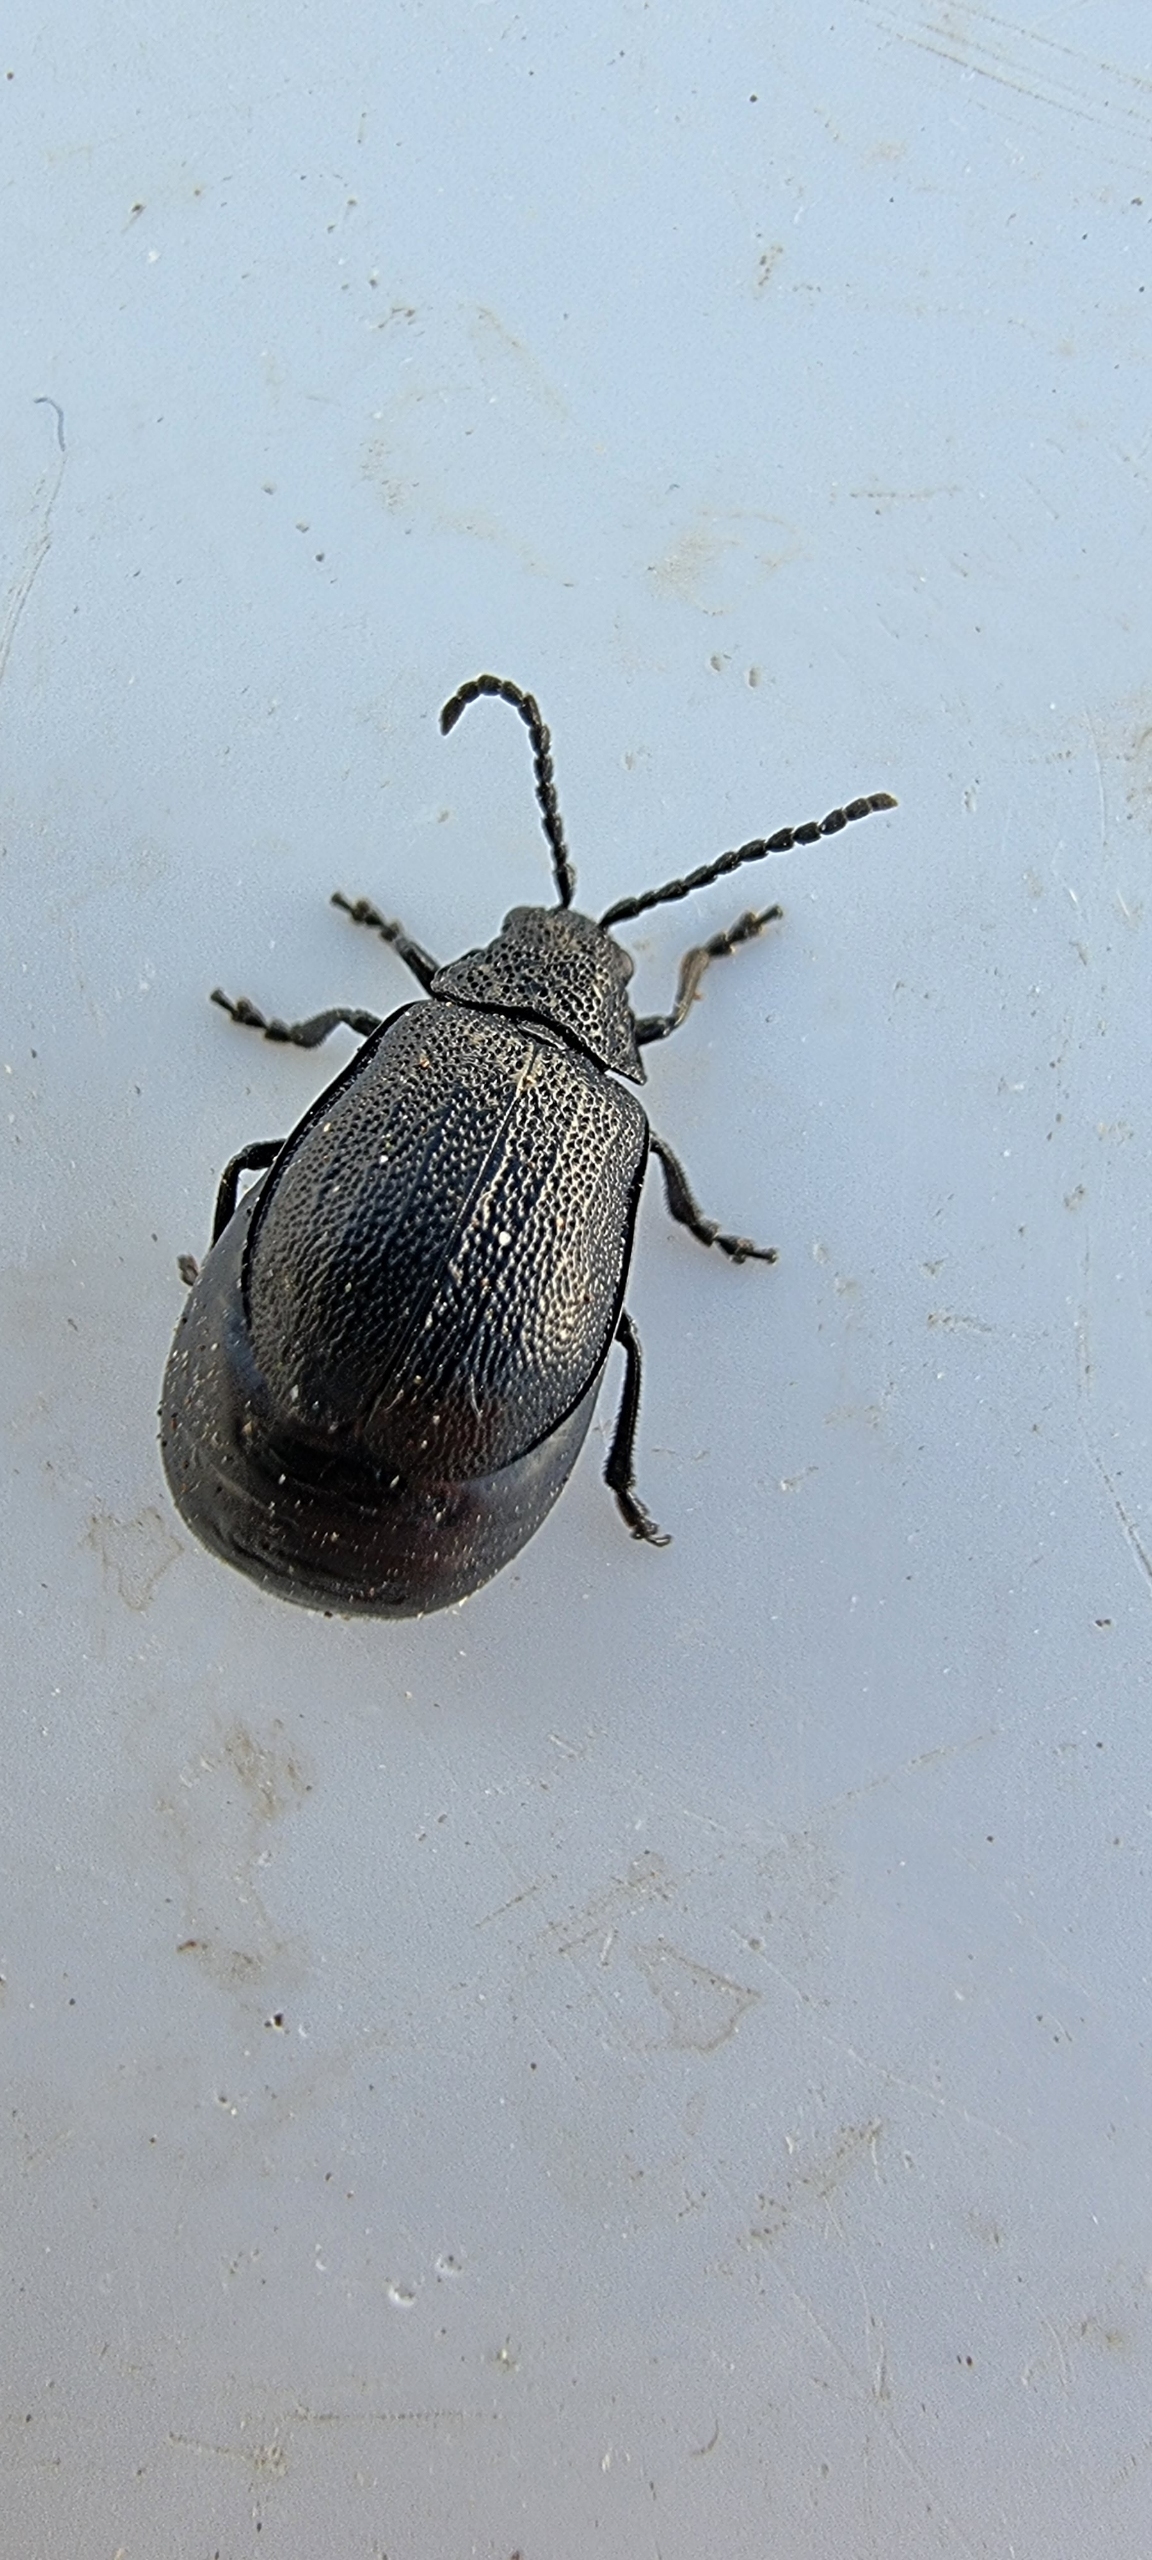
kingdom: Animalia
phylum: Arthropoda
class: Insecta
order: Coleoptera
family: Chrysomelidae
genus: Galeruca
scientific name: Galeruca pomonae
